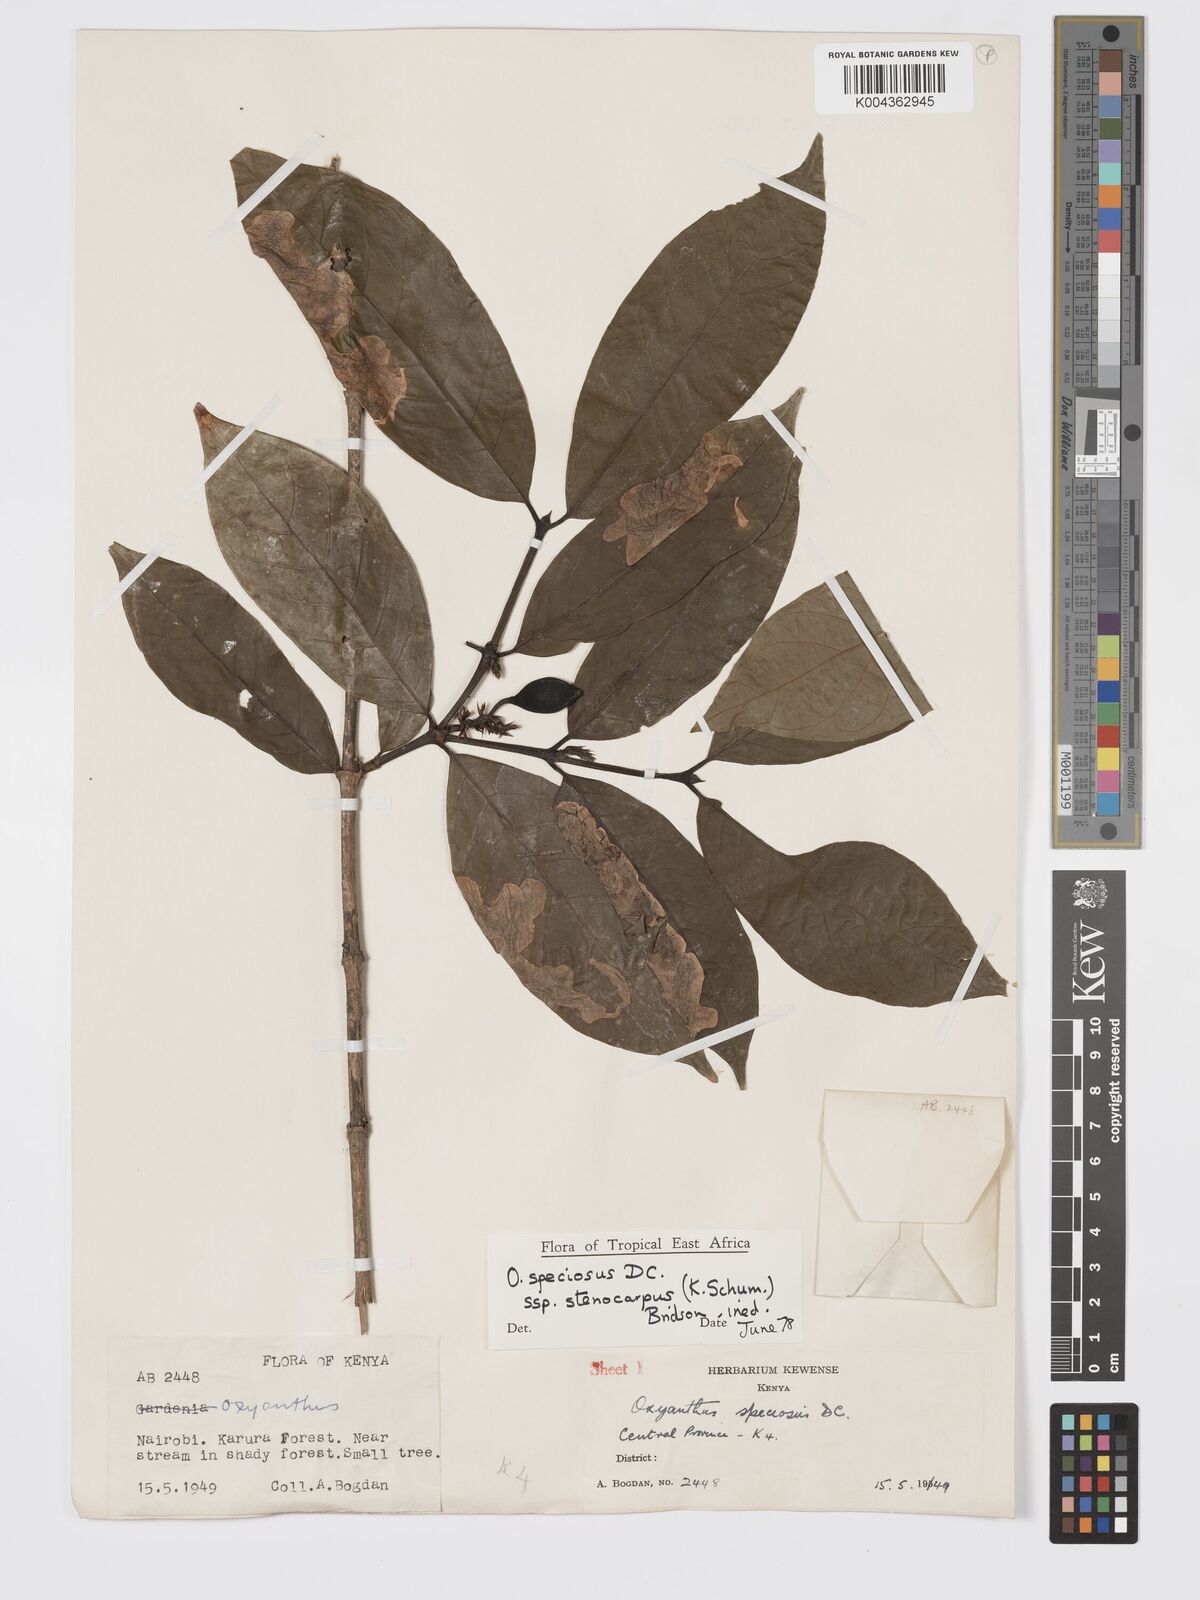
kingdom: Plantae
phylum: Tracheophyta
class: Magnoliopsida
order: Gentianales
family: Rubiaceae
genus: Oxyanthus
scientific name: Oxyanthus speciosus
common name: Whipstick loquat
